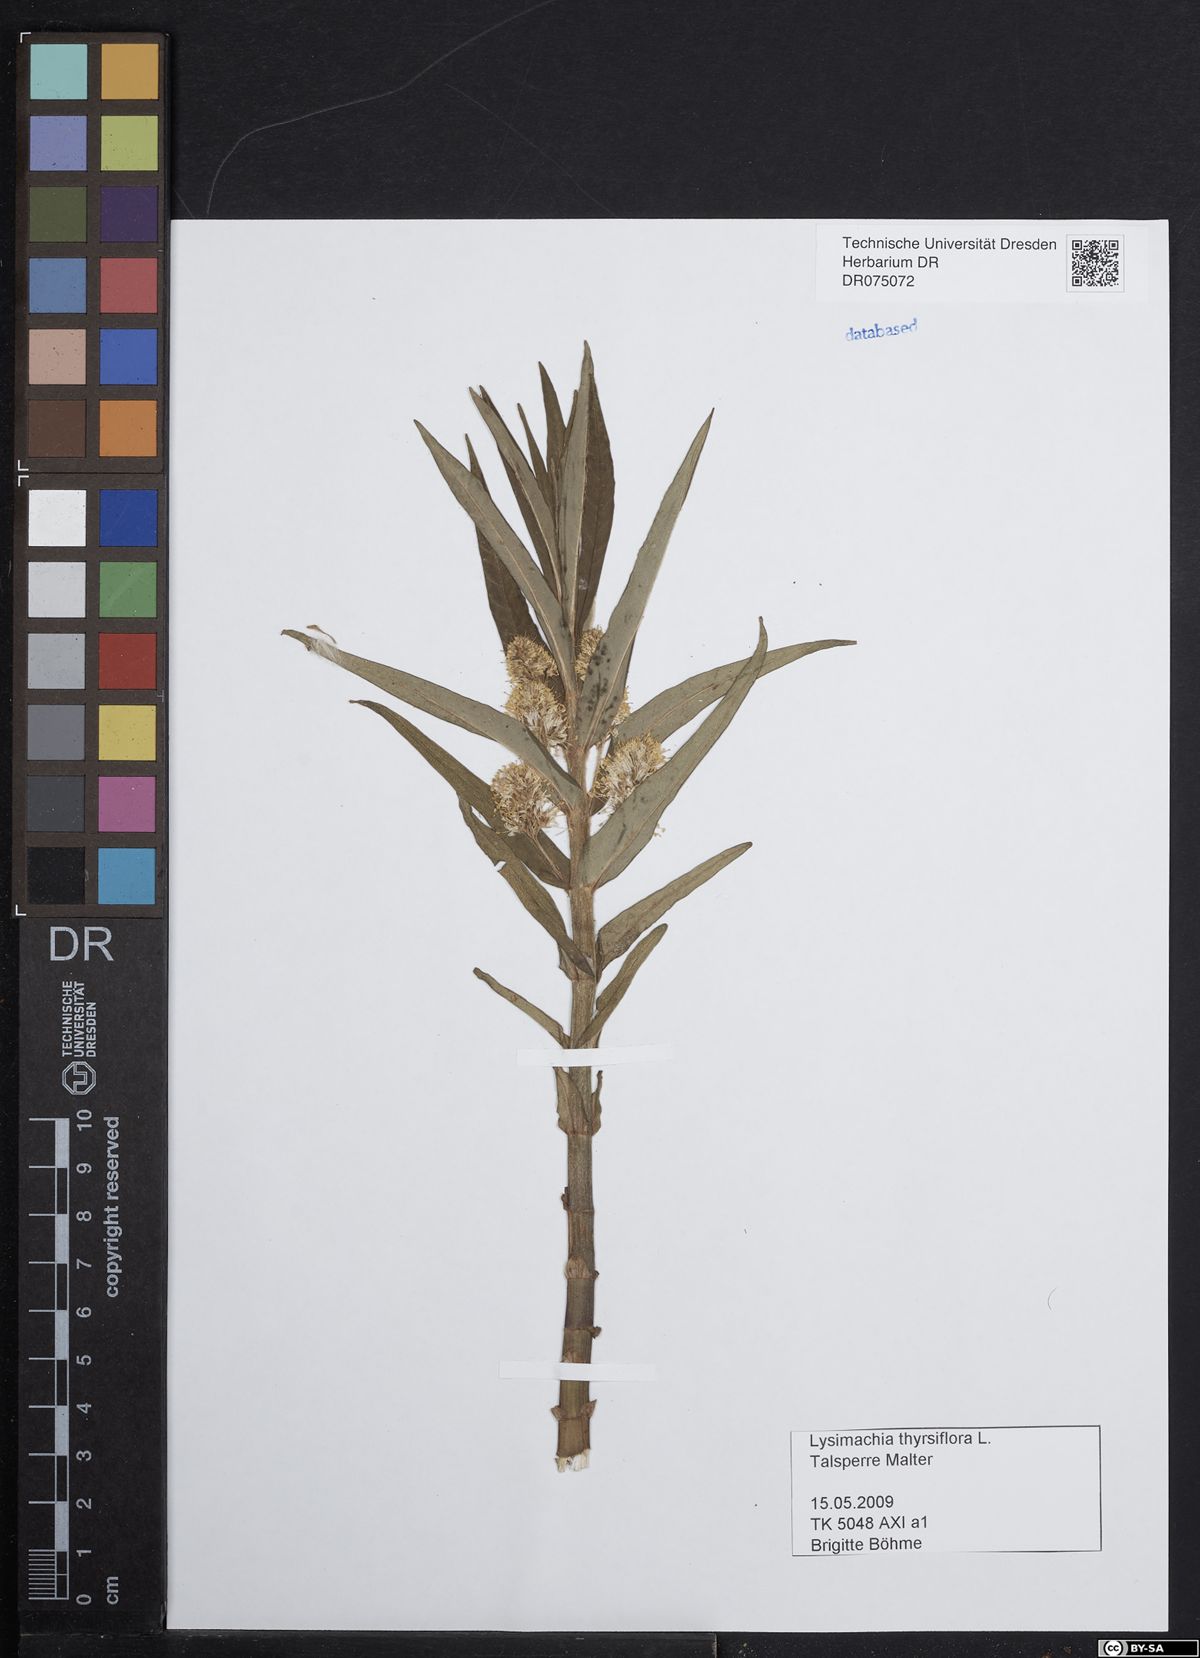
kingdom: Plantae
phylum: Tracheophyta
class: Magnoliopsida
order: Ericales
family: Primulaceae
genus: Lysimachia
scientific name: Lysimachia thyrsiflora
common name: Tufted loosestrife
